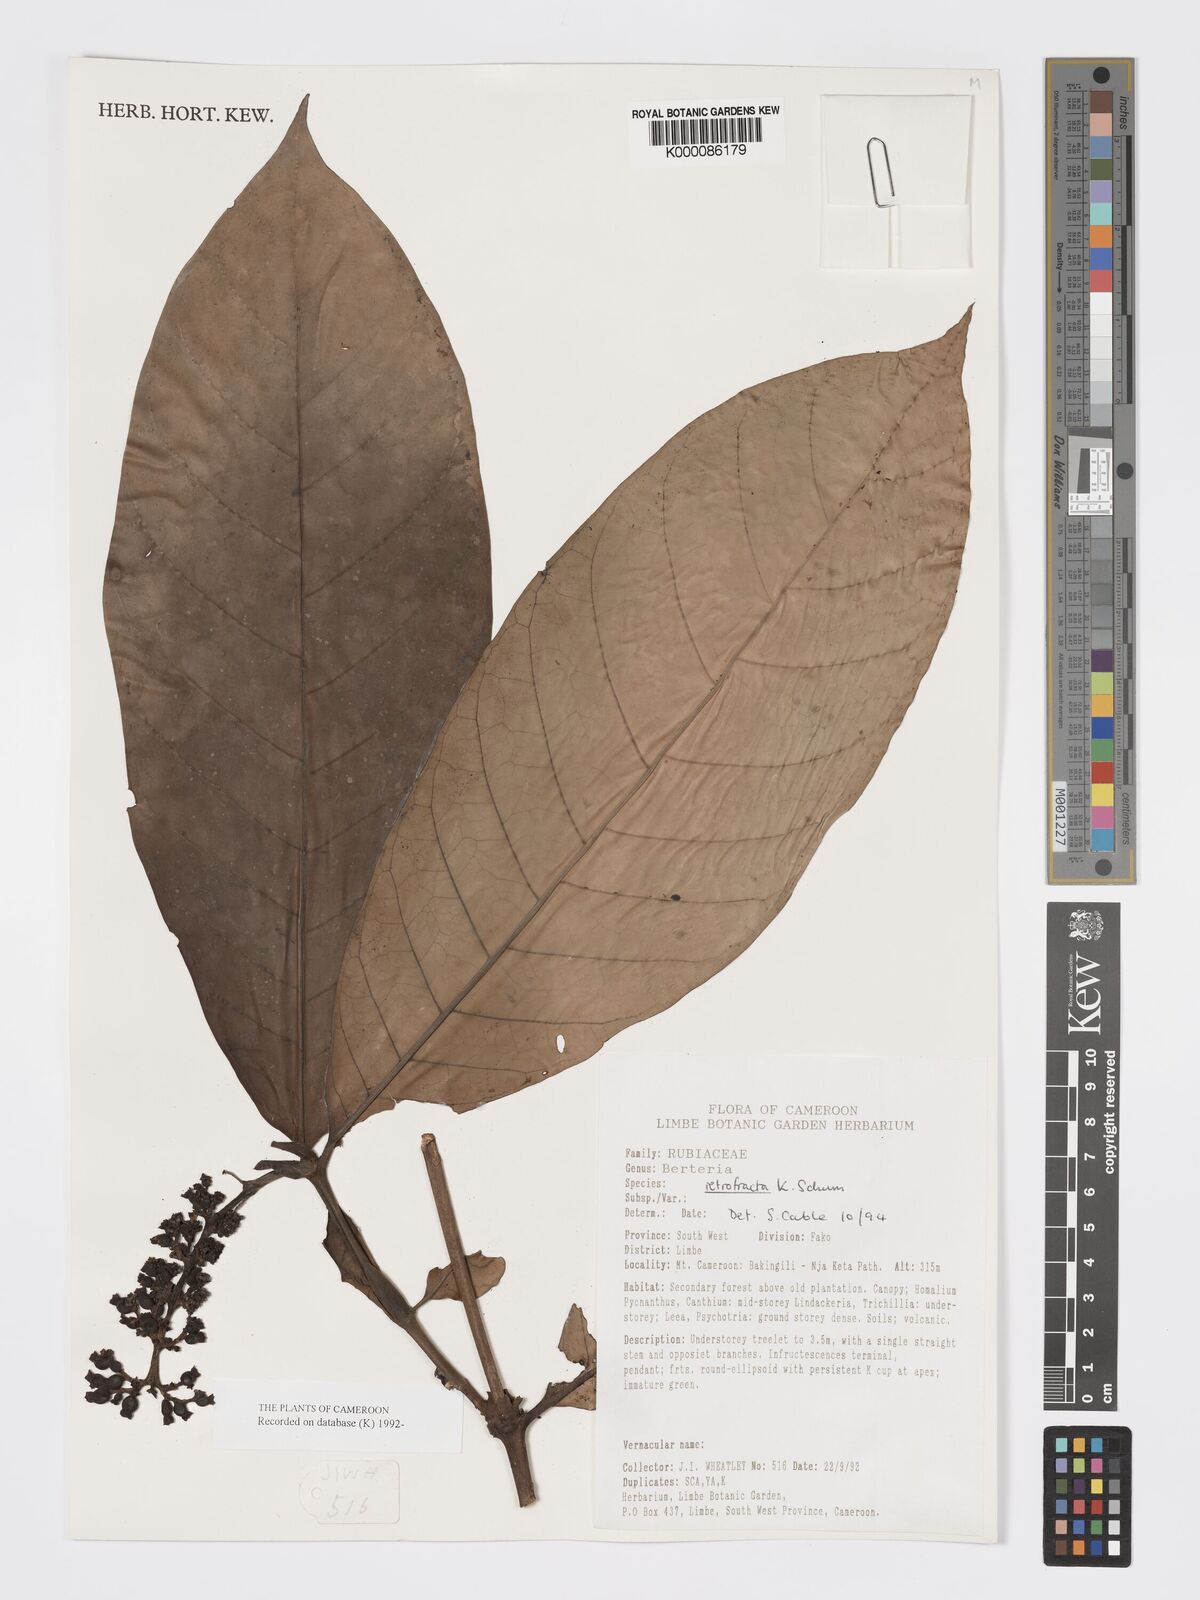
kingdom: Plantae
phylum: Tracheophyta
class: Magnoliopsida
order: Gentianales
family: Rubiaceae
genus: Bertiera
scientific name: Bertiera retrofracta
